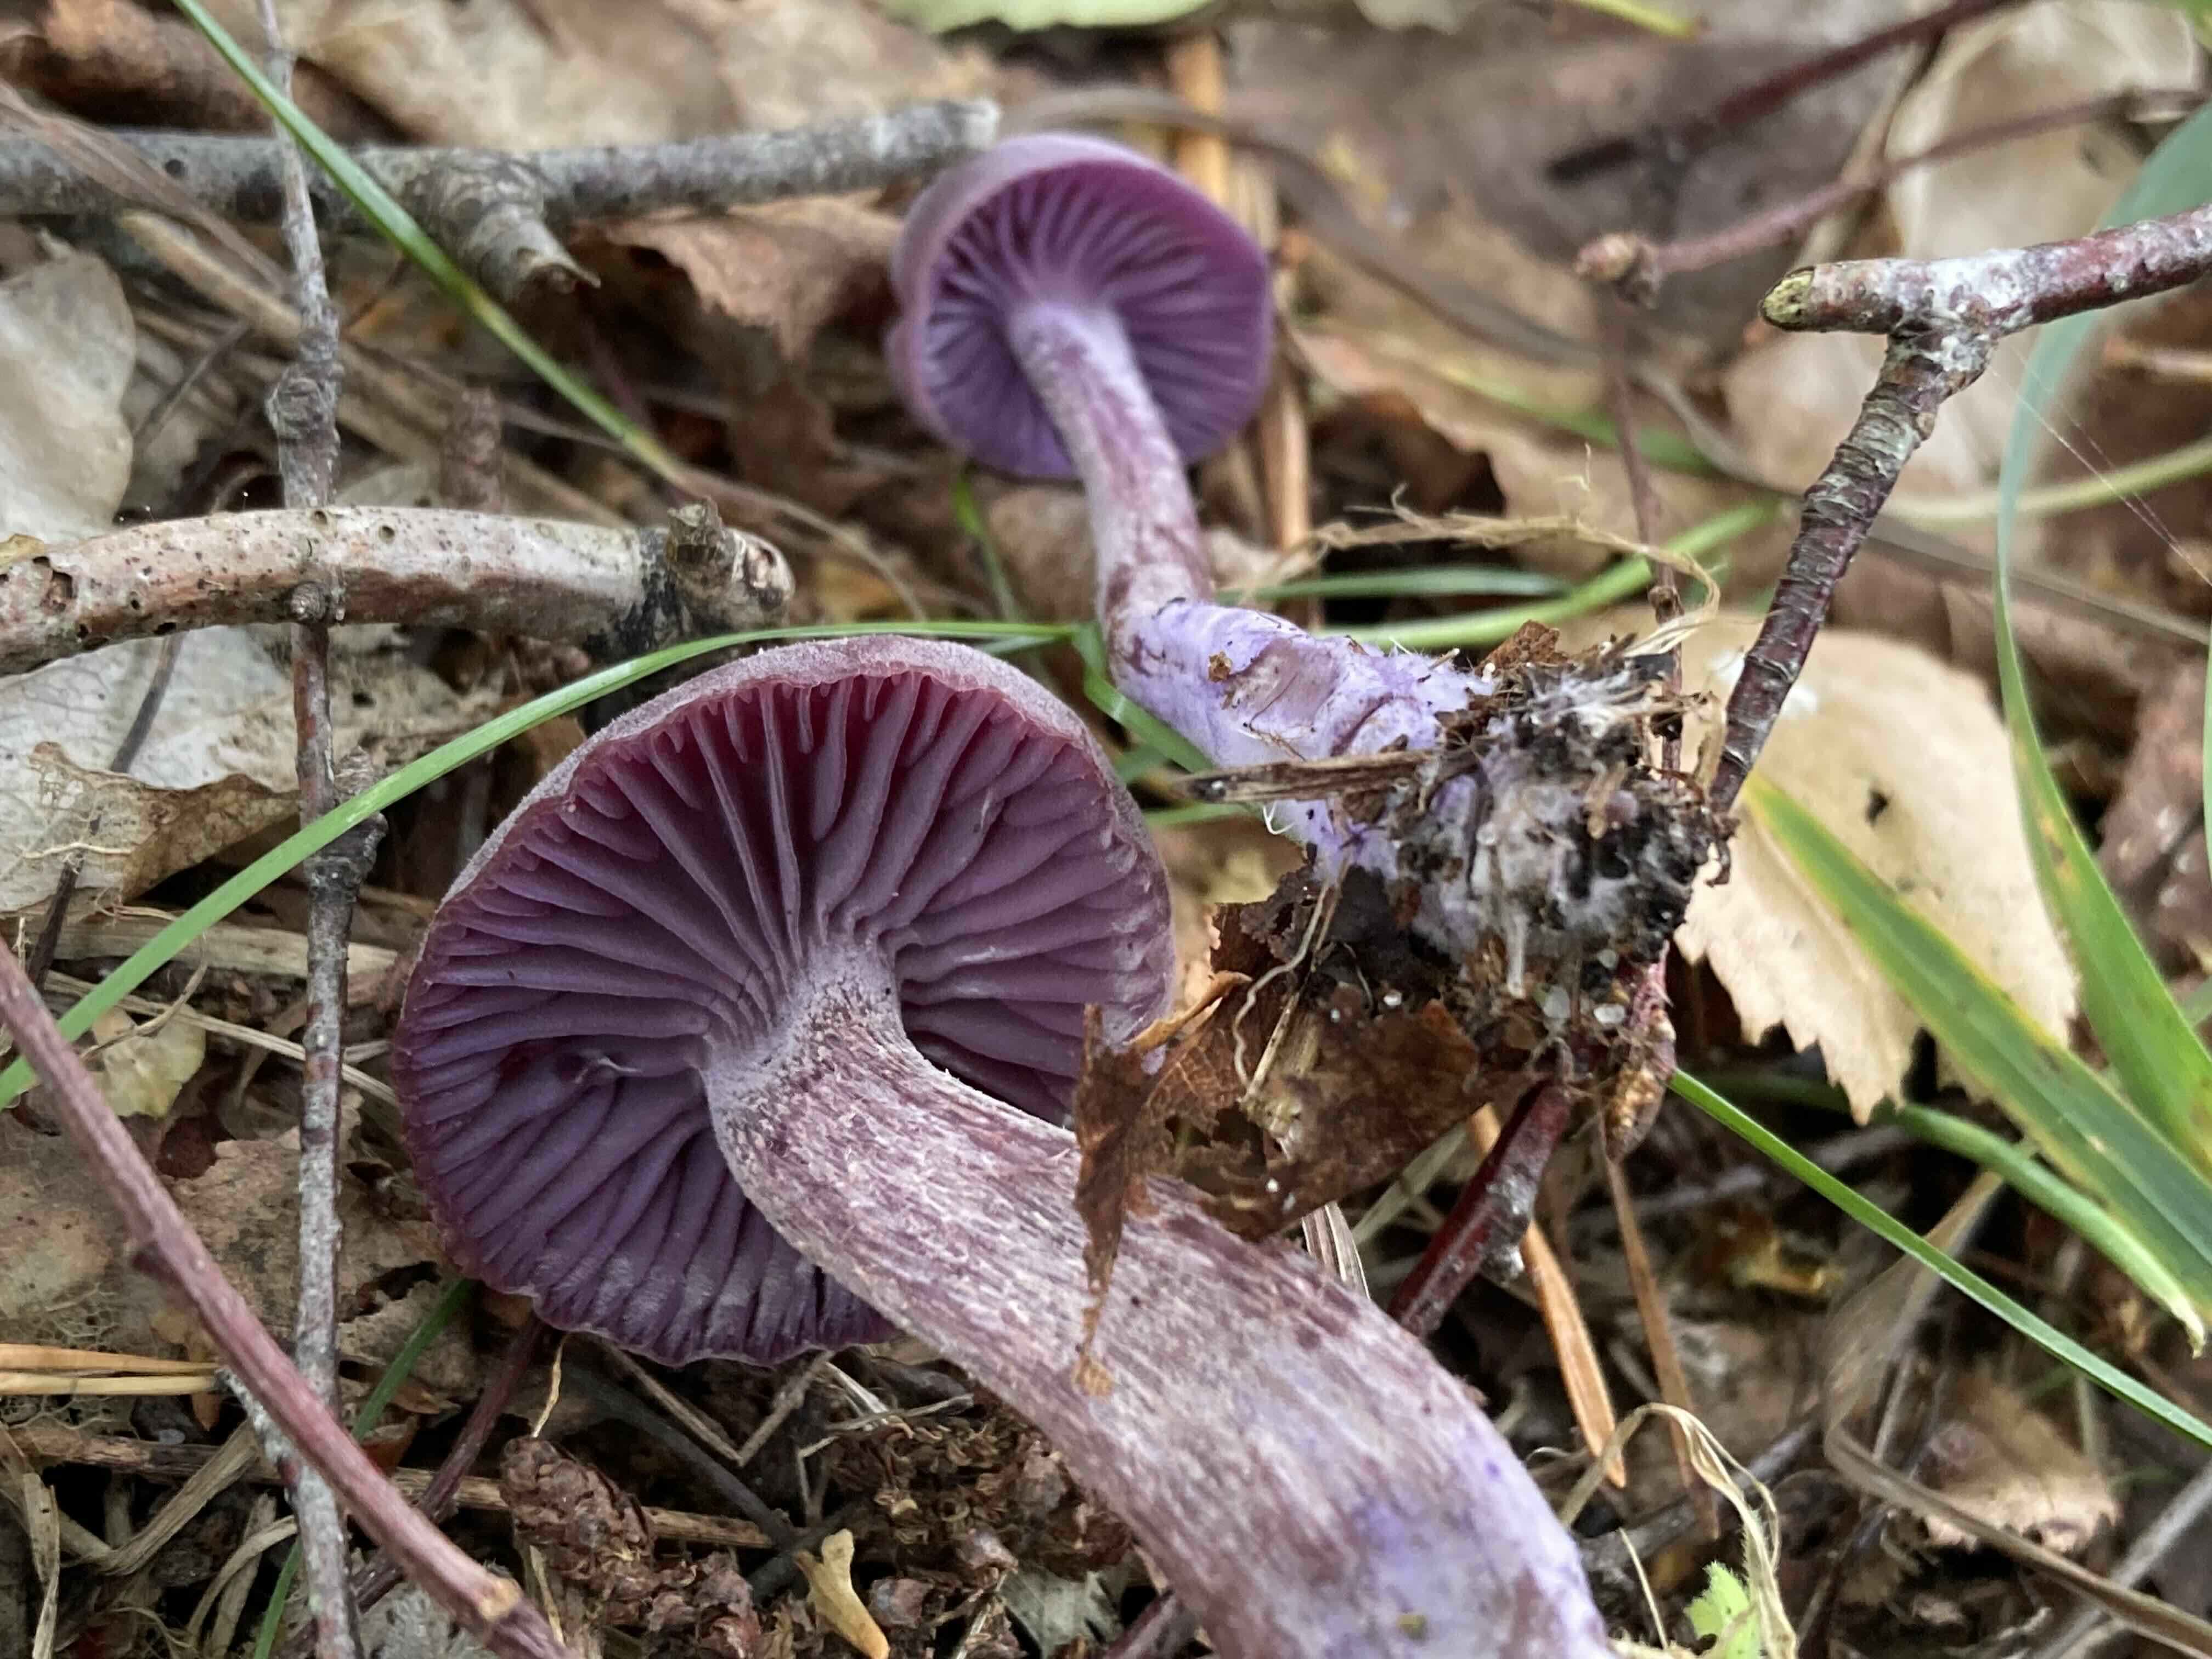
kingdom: Fungi
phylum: Basidiomycota
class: Agaricomycetes
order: Agaricales
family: Hydnangiaceae
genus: Laccaria
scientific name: Laccaria amethystina
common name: violet ametysthat
